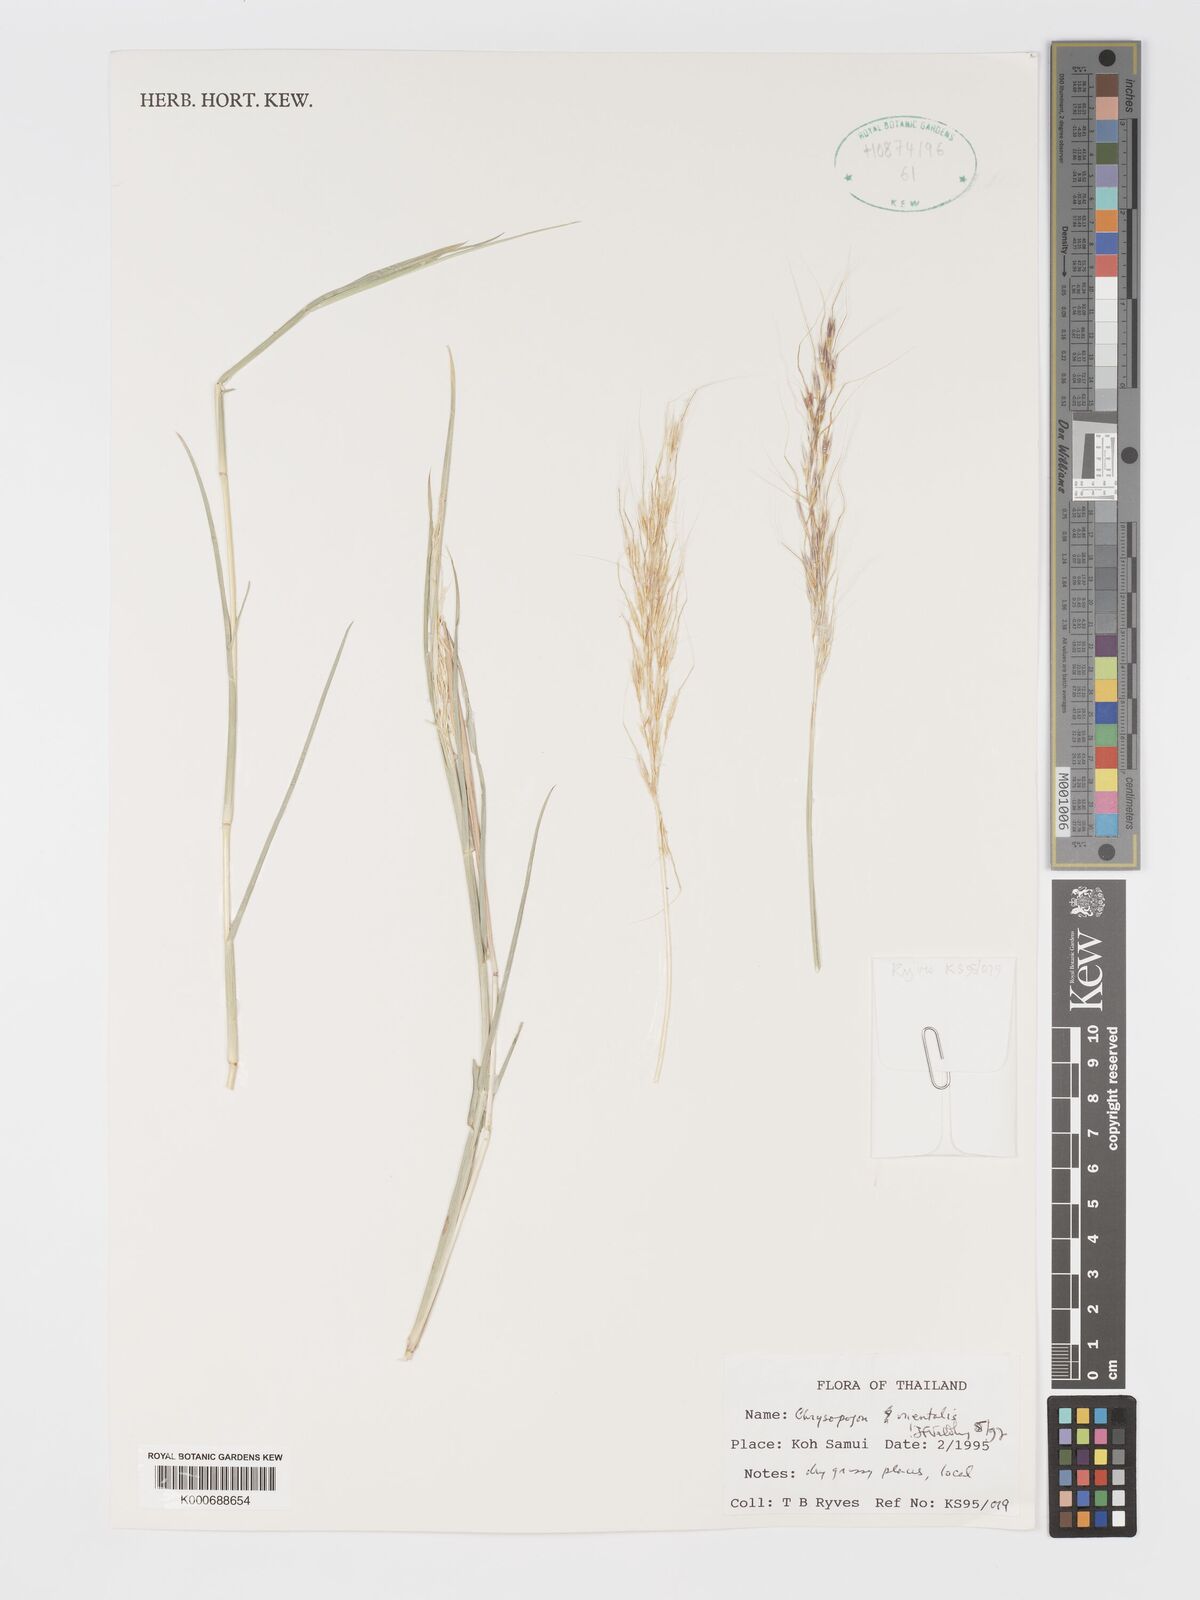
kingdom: Plantae
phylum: Tracheophyta
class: Liliopsida
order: Poales
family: Poaceae
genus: Chrysopogon
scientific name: Chrysopogon orientalis
